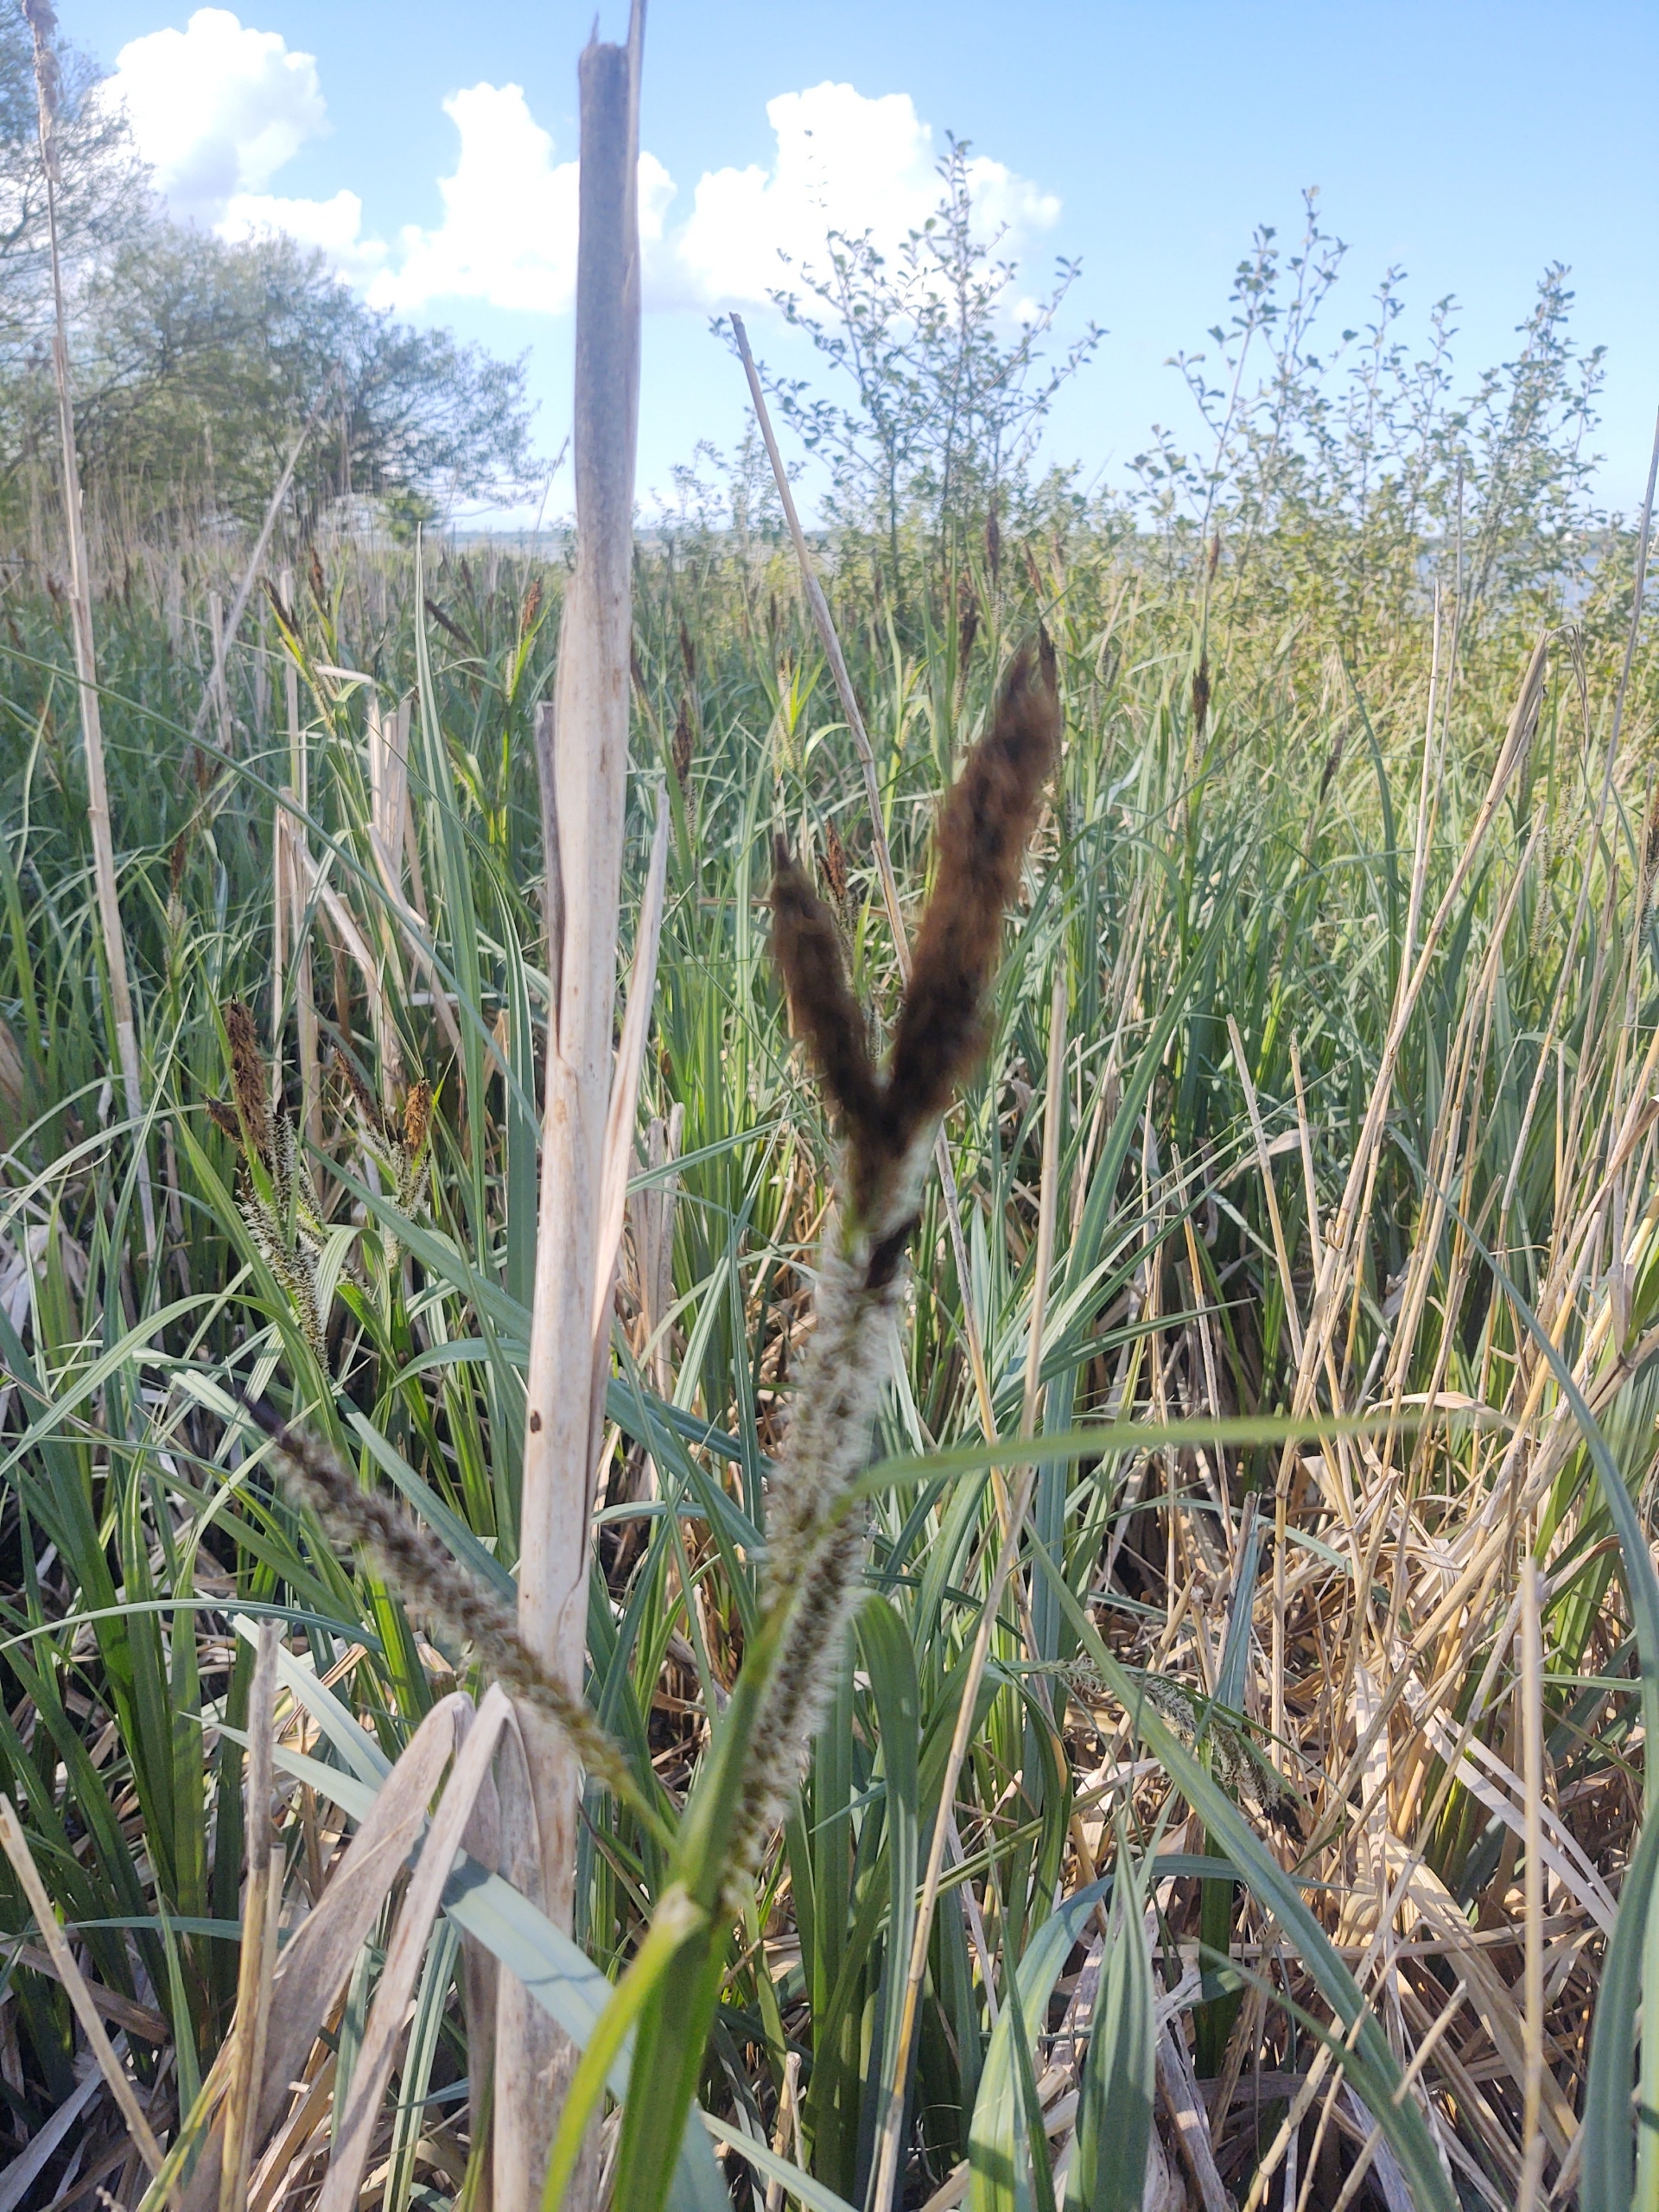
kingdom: Plantae
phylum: Tracheophyta
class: Liliopsida
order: Poales
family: Cyperaceae
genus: Carex
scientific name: Carex riparia
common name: Tykakset star
